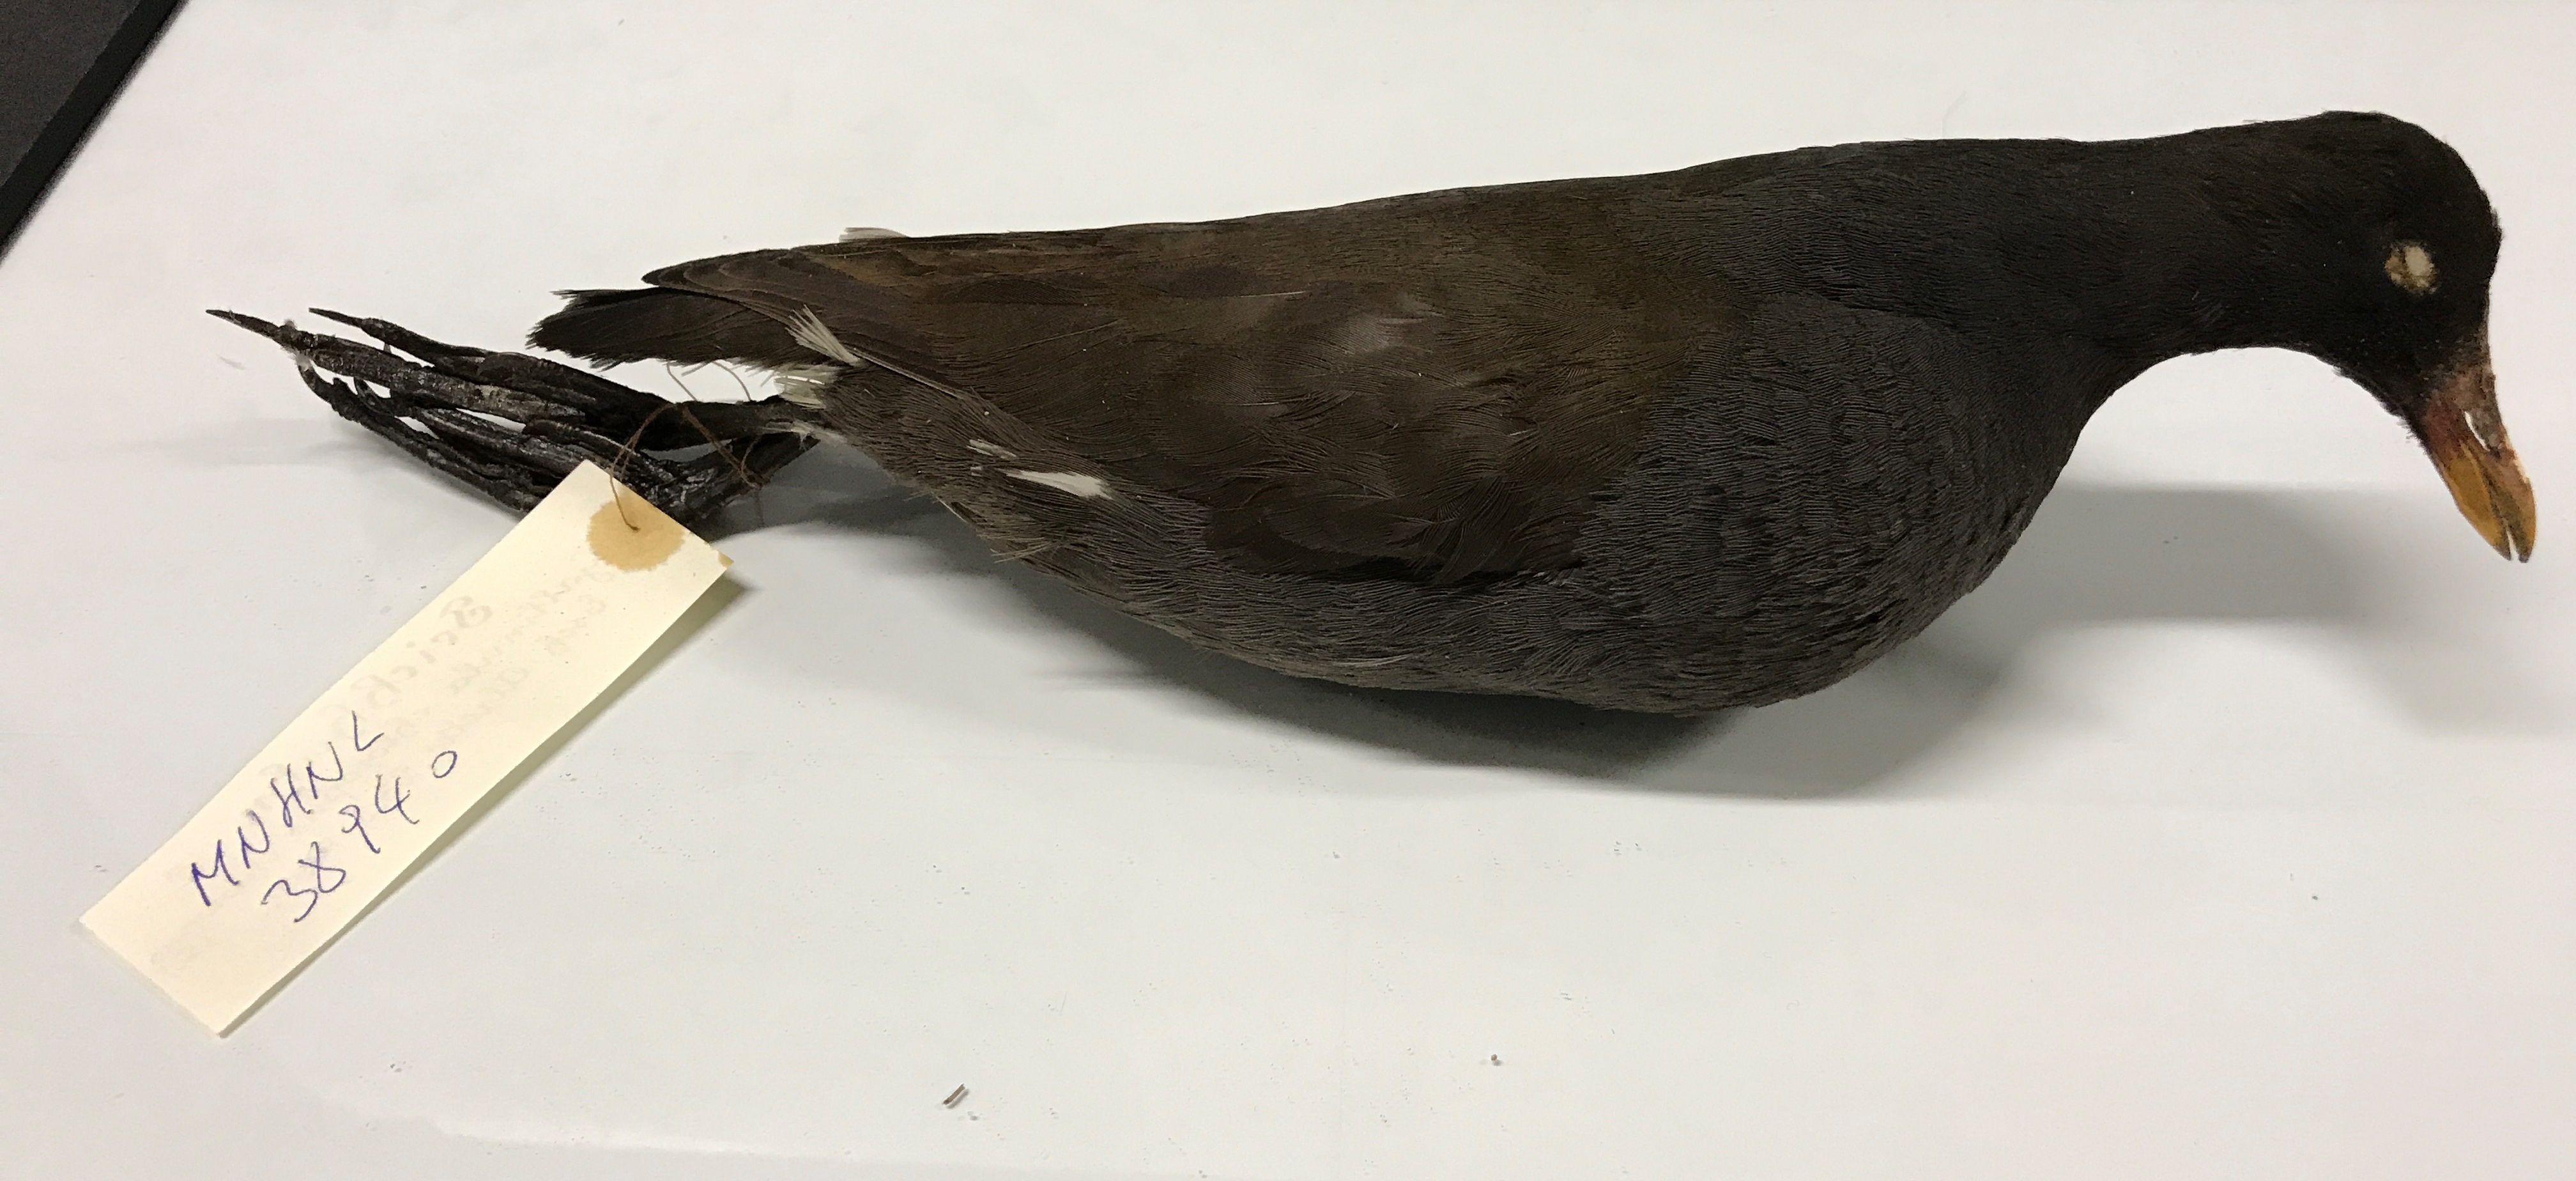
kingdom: Animalia
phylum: Chordata
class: Aves
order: Gruiformes
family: Rallidae
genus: Gallinula
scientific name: Gallinula chloropus
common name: Common moorhen
